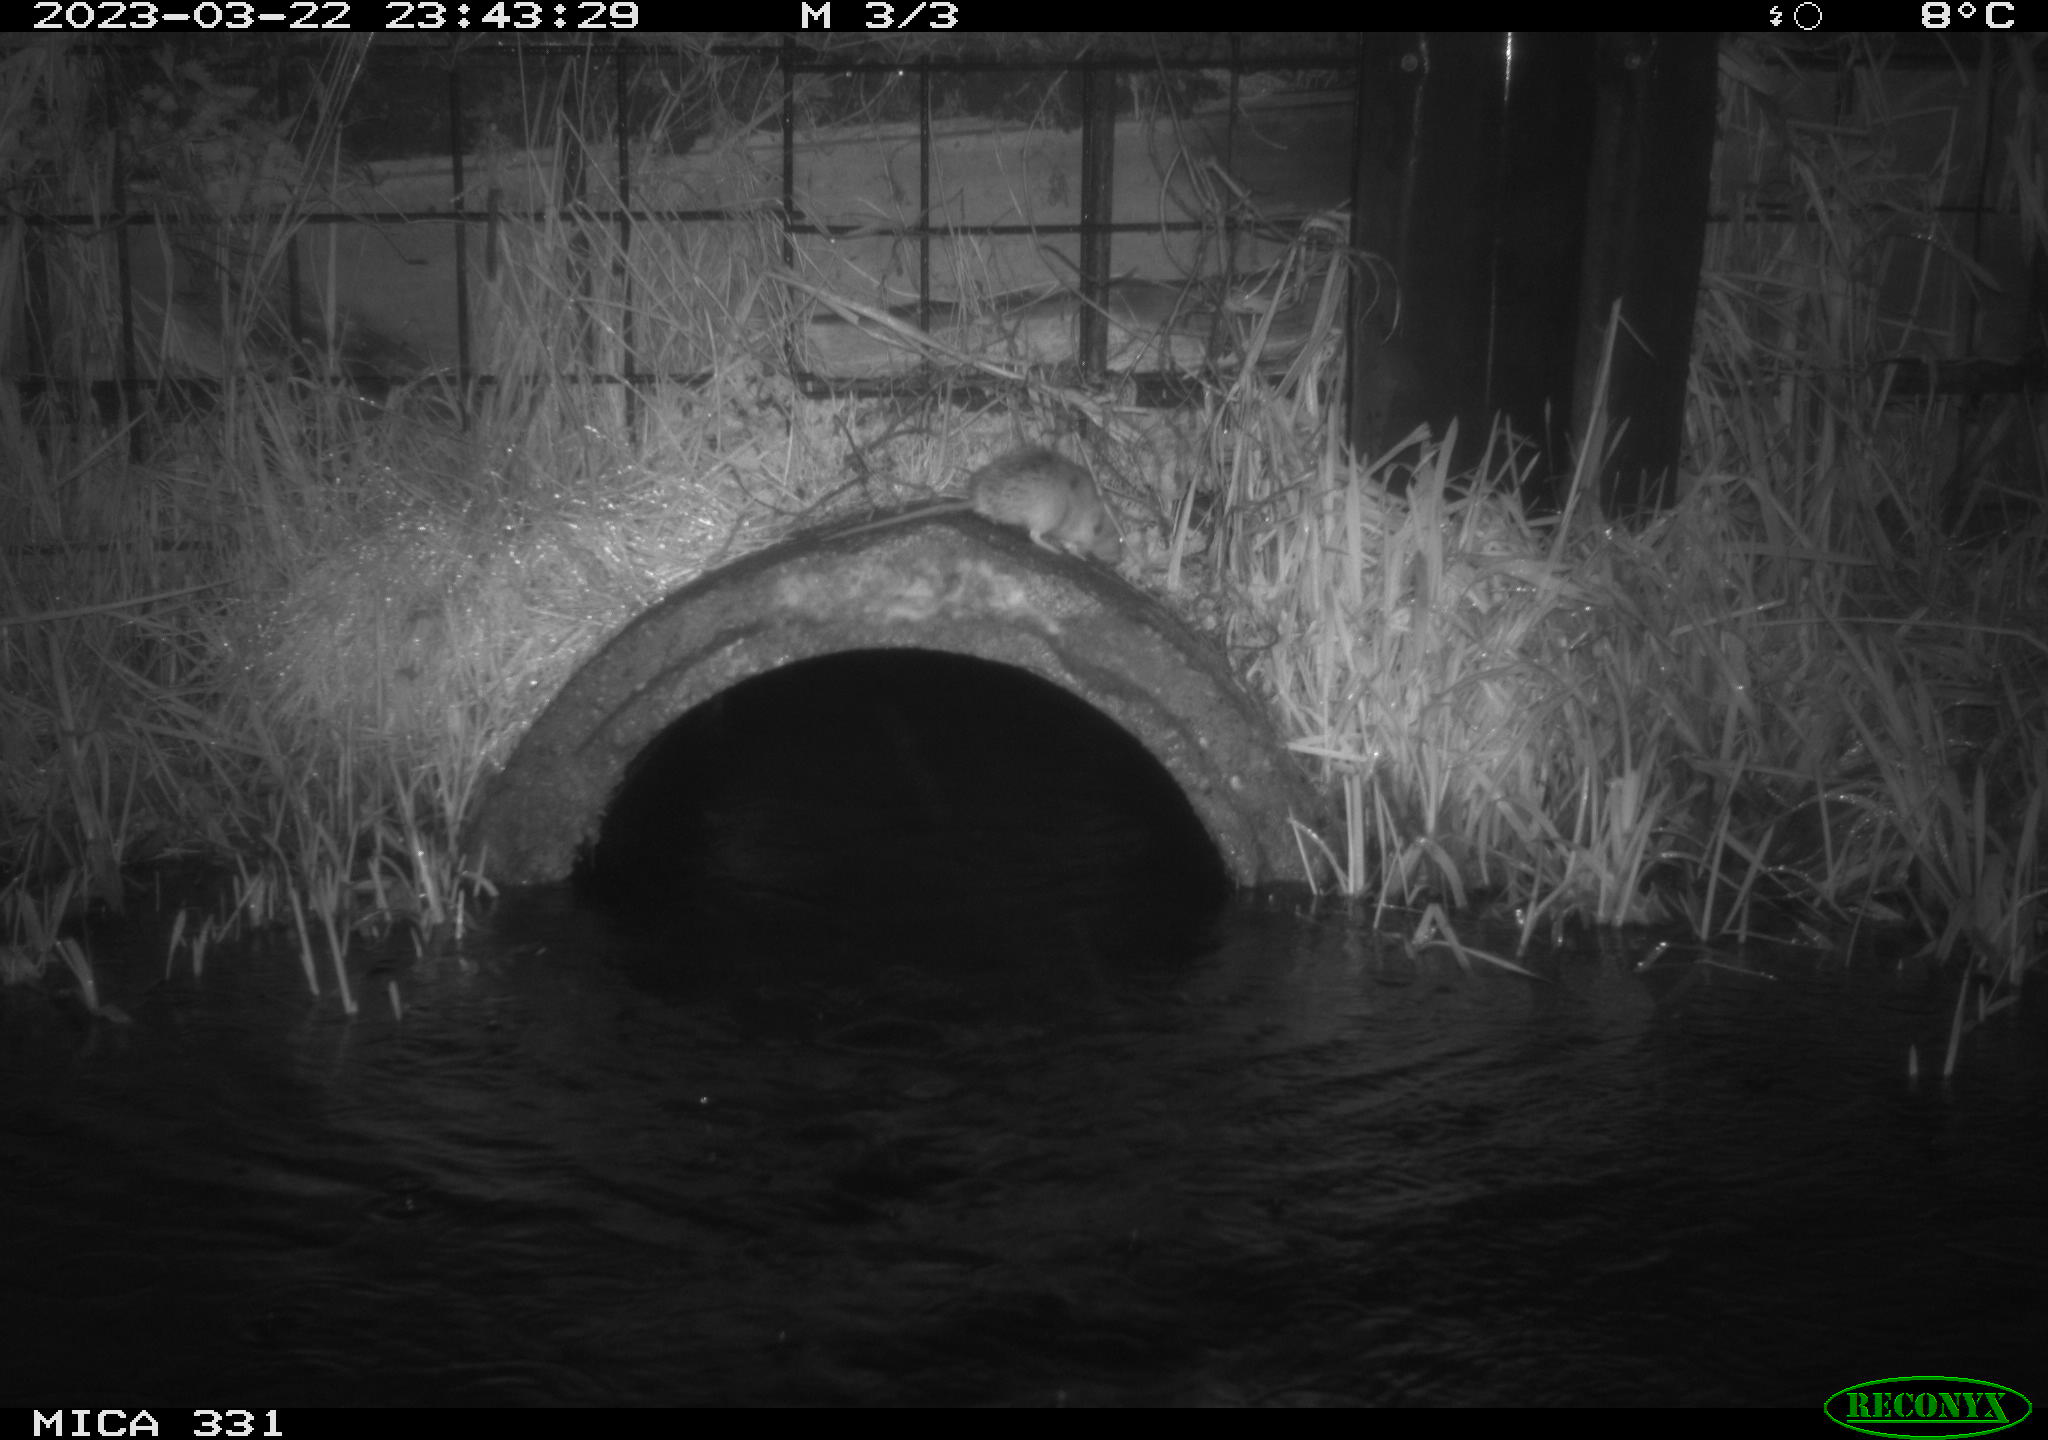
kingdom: Animalia
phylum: Chordata
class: Mammalia
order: Rodentia
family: Muridae
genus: Rattus
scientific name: Rattus norvegicus
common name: Brown rat
